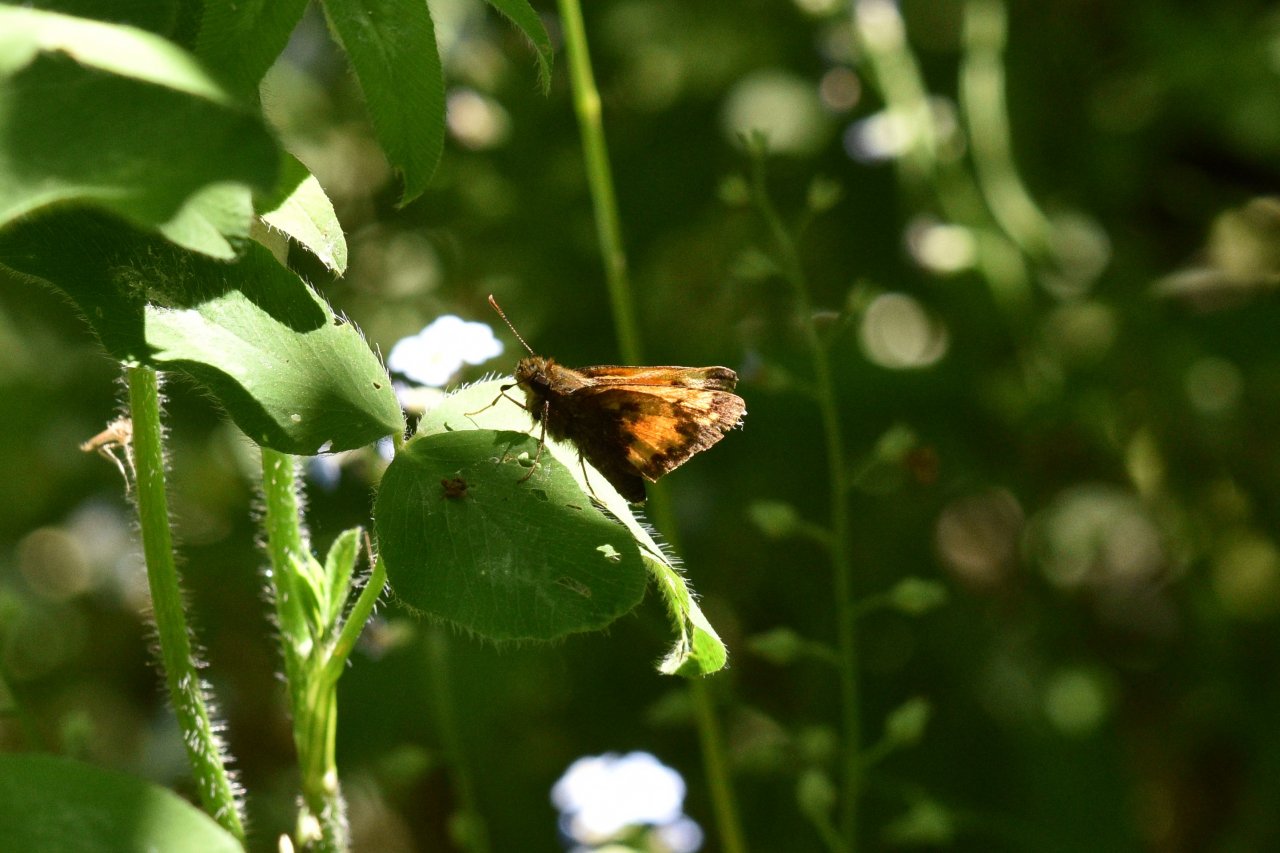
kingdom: Animalia
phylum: Arthropoda
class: Insecta
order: Lepidoptera
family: Hesperiidae
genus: Lon
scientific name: Lon hobomok
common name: Hobomok Skipper
